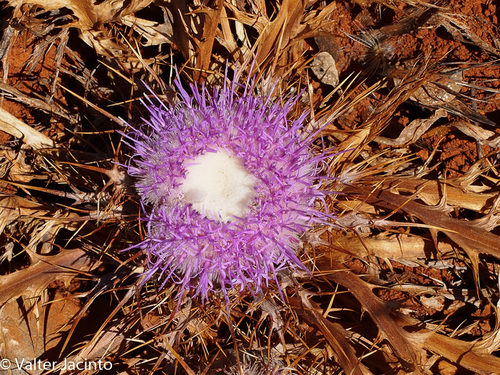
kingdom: Plantae
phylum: Tracheophyta
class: Magnoliopsida
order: Asterales
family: Asteraceae
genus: Chamaeleon
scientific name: Chamaeleon gummifer
